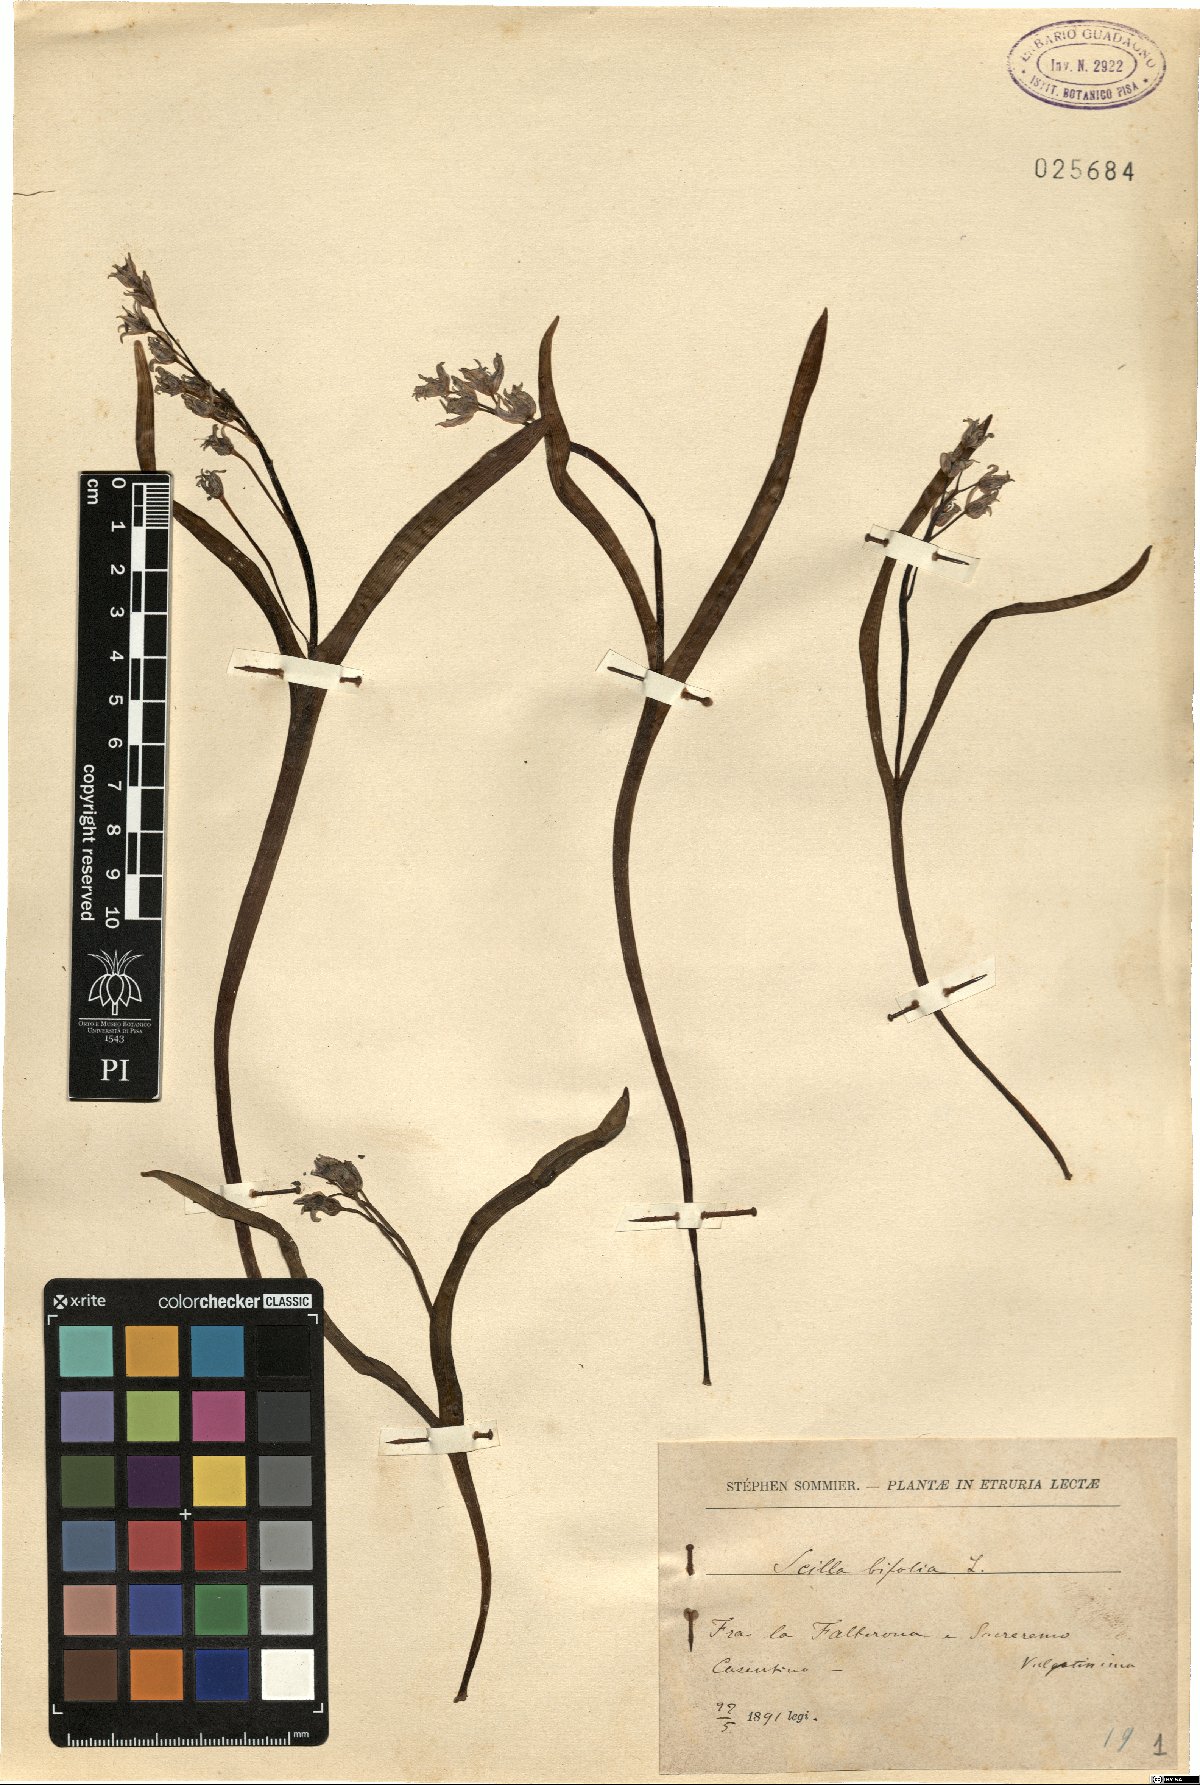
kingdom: Plantae
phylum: Tracheophyta
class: Liliopsida
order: Asparagales
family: Asparagaceae
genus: Scilla
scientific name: Scilla bifolia
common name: Alpine squill
